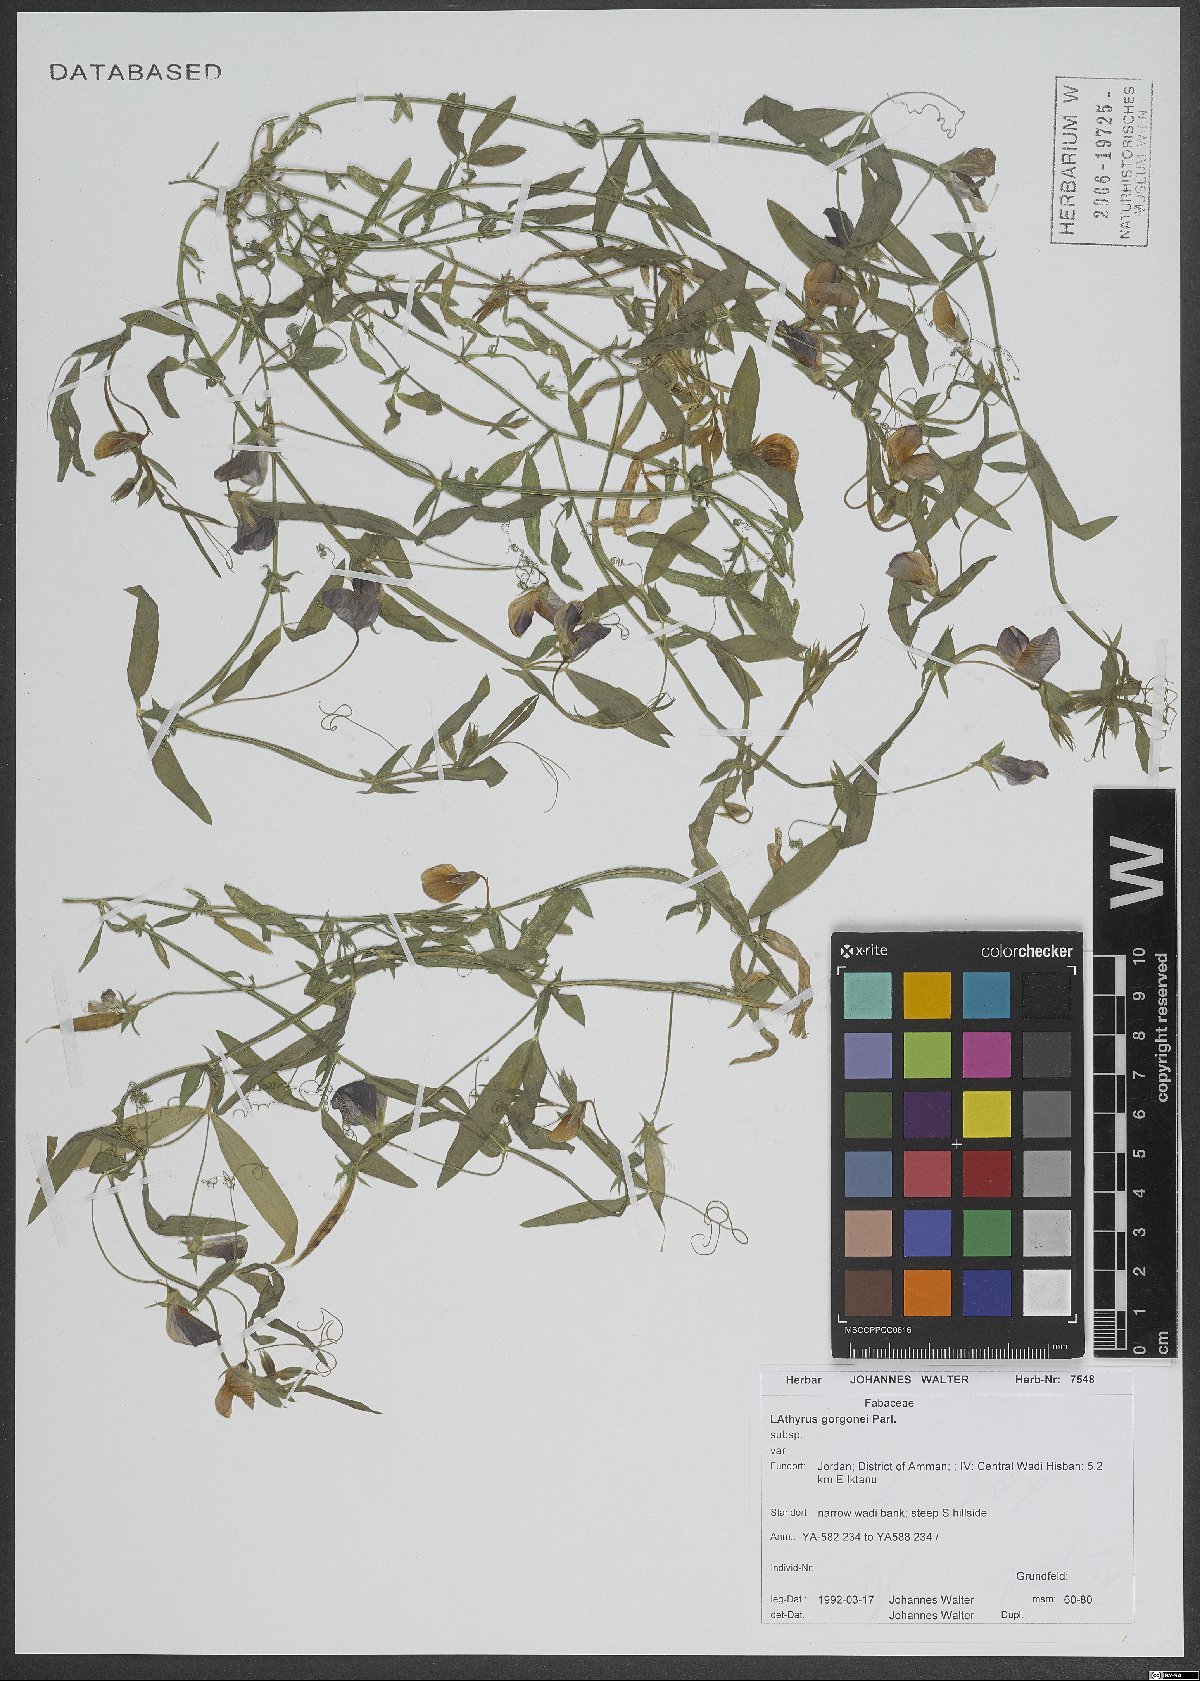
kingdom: Plantae
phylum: Tracheophyta
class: Magnoliopsida
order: Fabales
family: Fabaceae
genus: Lathyrus
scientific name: Lathyrus gorgoni
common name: Rare pea
